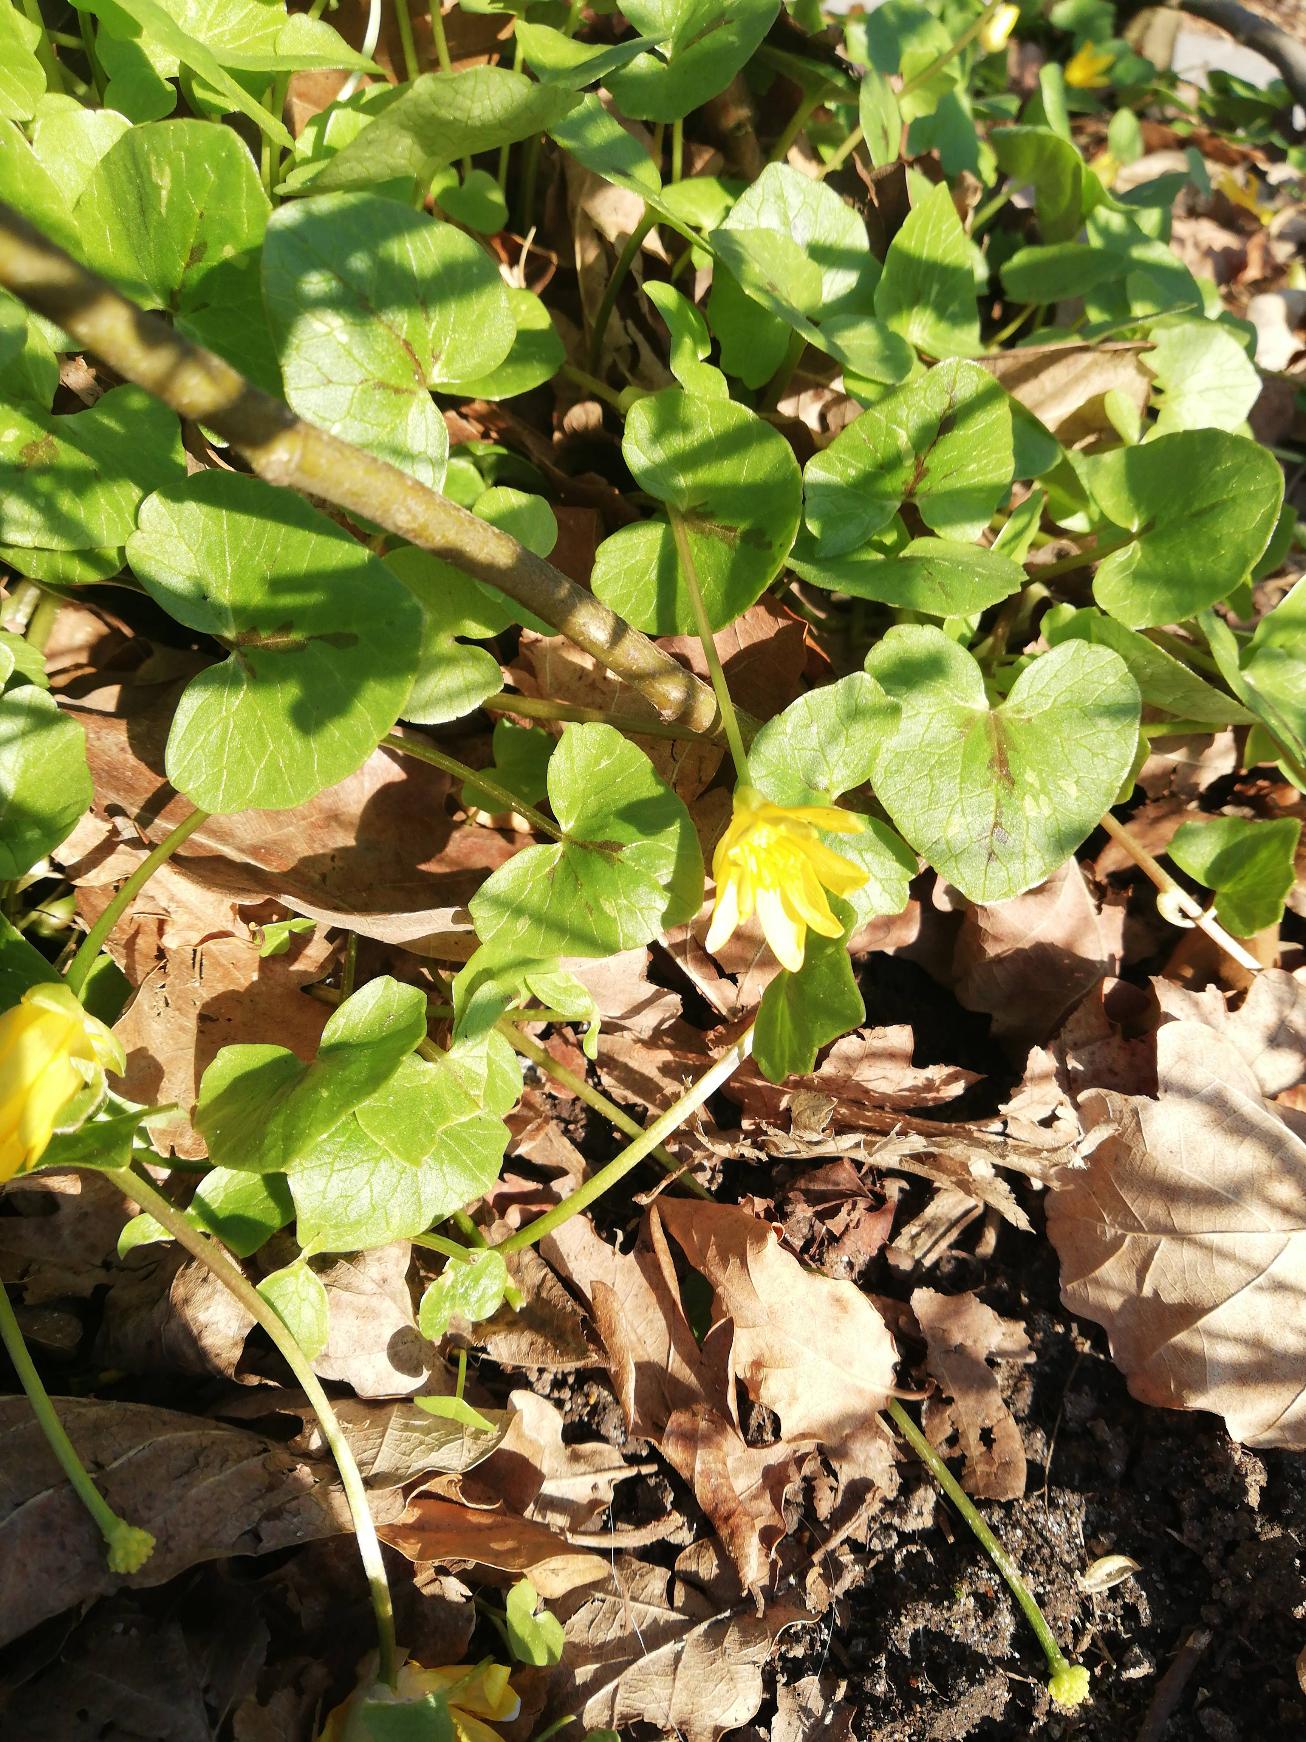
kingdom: Plantae
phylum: Tracheophyta
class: Magnoliopsida
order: Ranunculales
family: Ranunculaceae
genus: Ficaria
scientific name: Ficaria verna
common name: Vorterod
